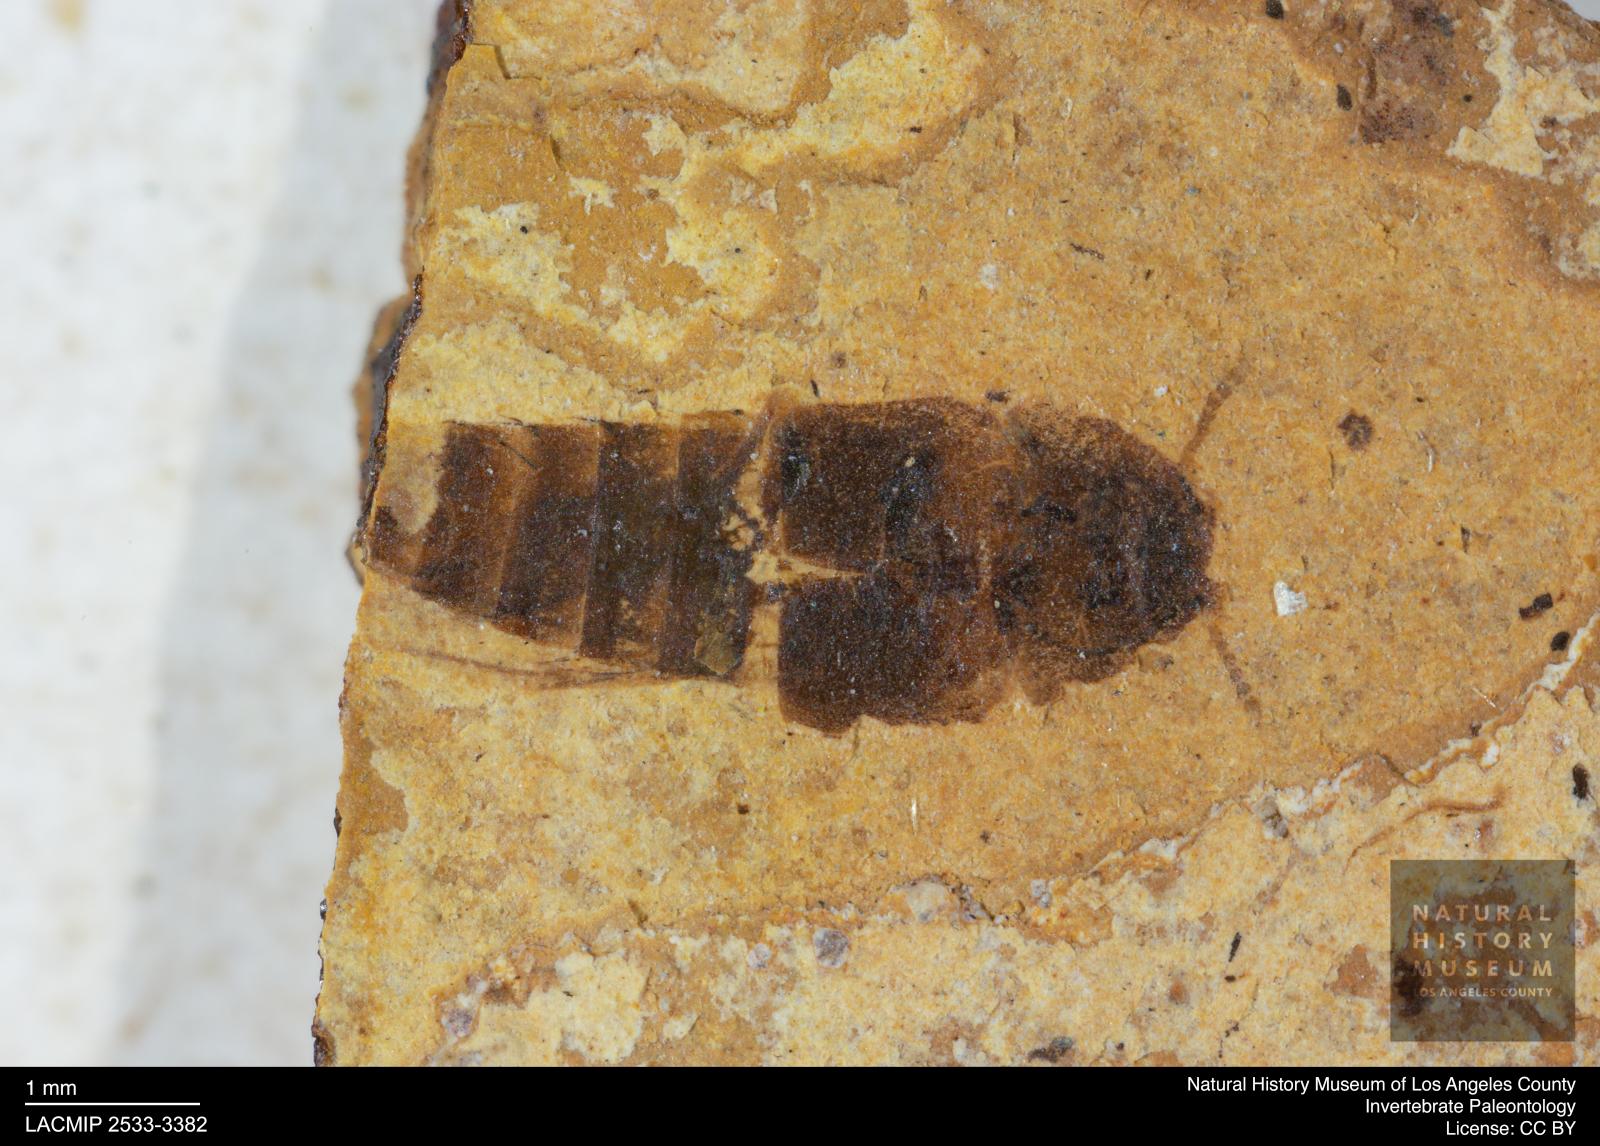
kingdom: Animalia
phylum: Arthropoda
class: Insecta
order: Coleoptera
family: Staphylinidae
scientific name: Staphylinidae
